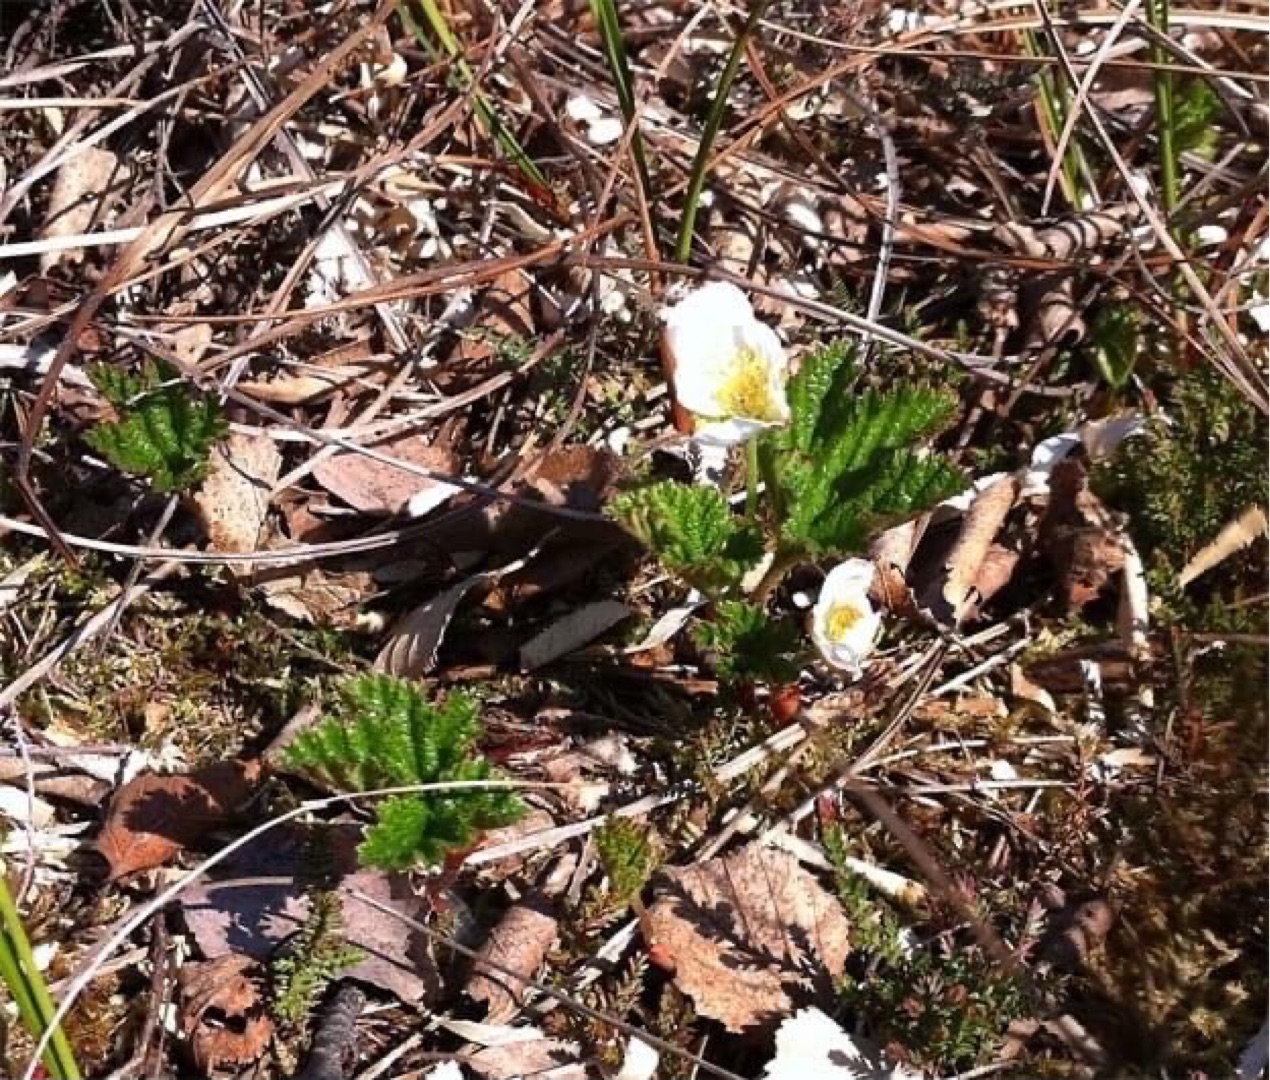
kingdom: Plantae
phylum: Tracheophyta
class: Magnoliopsida
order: Rosales
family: Rosaceae
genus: Rubus
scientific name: Rubus chamaemorus
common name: Multebær
